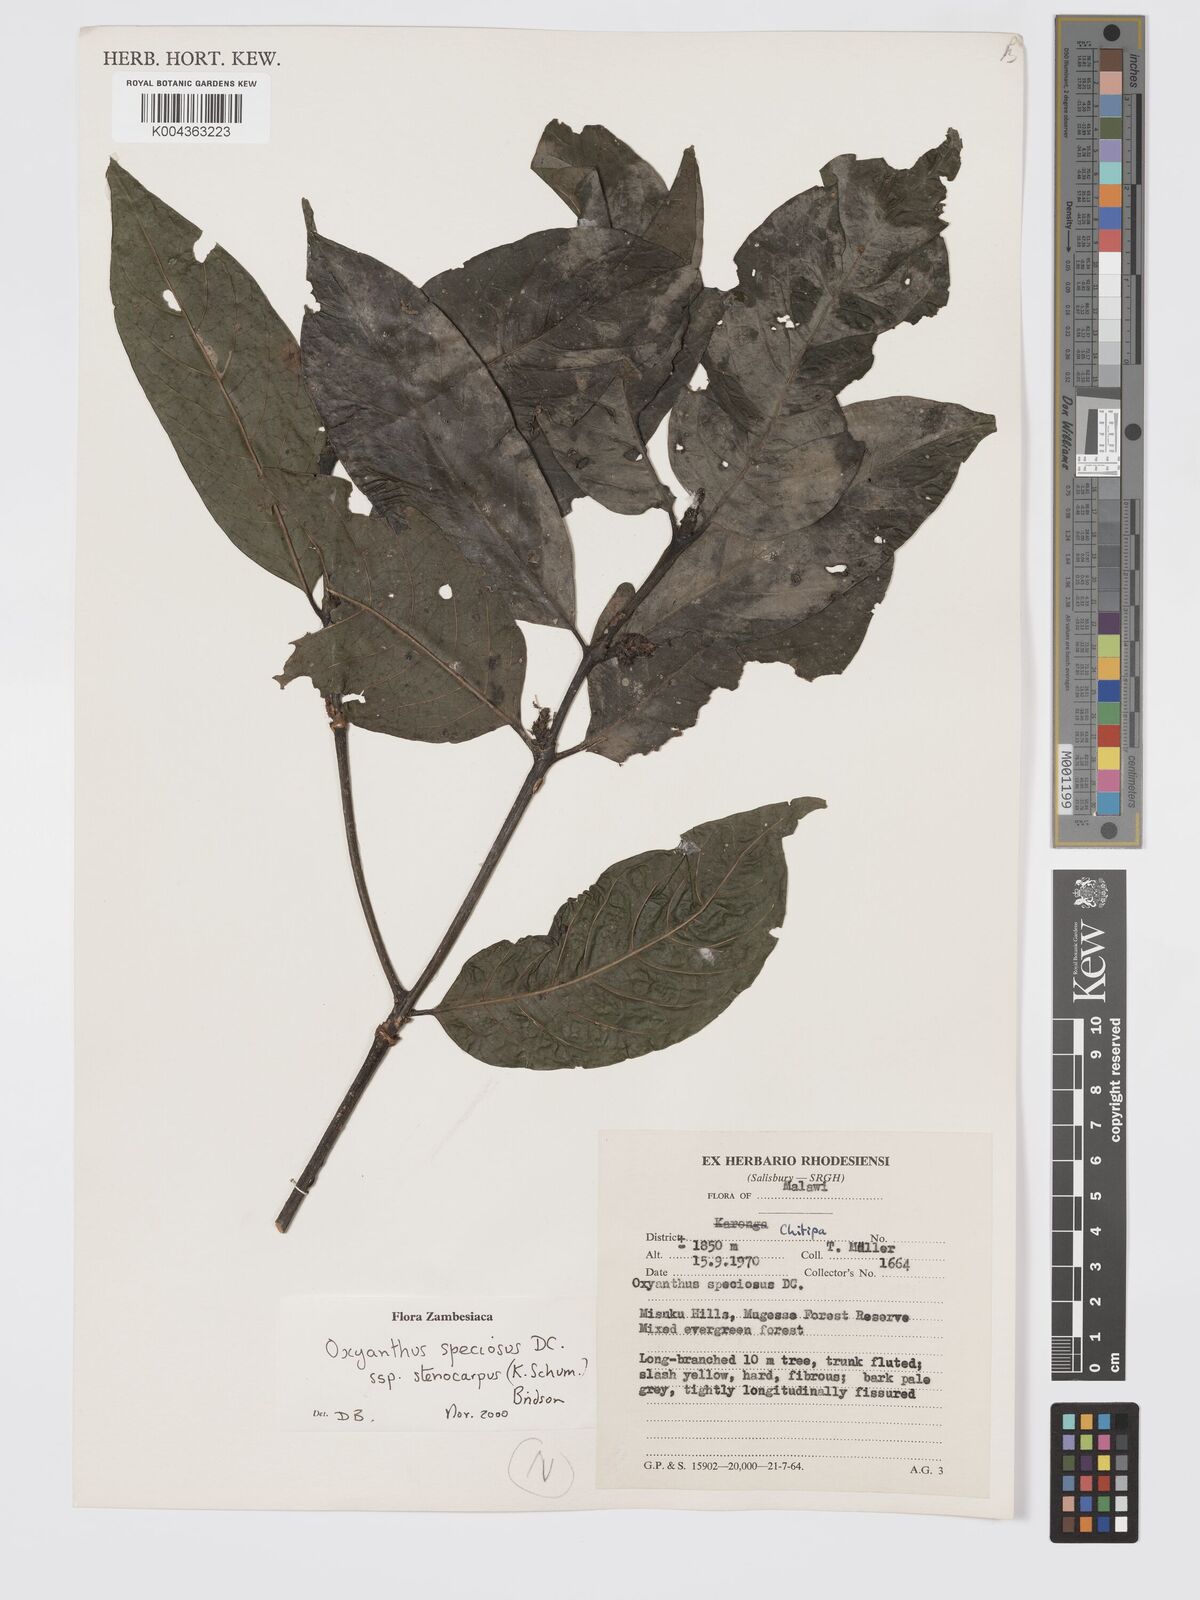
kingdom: Plantae
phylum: Tracheophyta
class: Magnoliopsida
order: Gentianales
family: Rubiaceae
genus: Oxyanthus
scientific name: Oxyanthus speciosus
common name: Whipstick loquat
